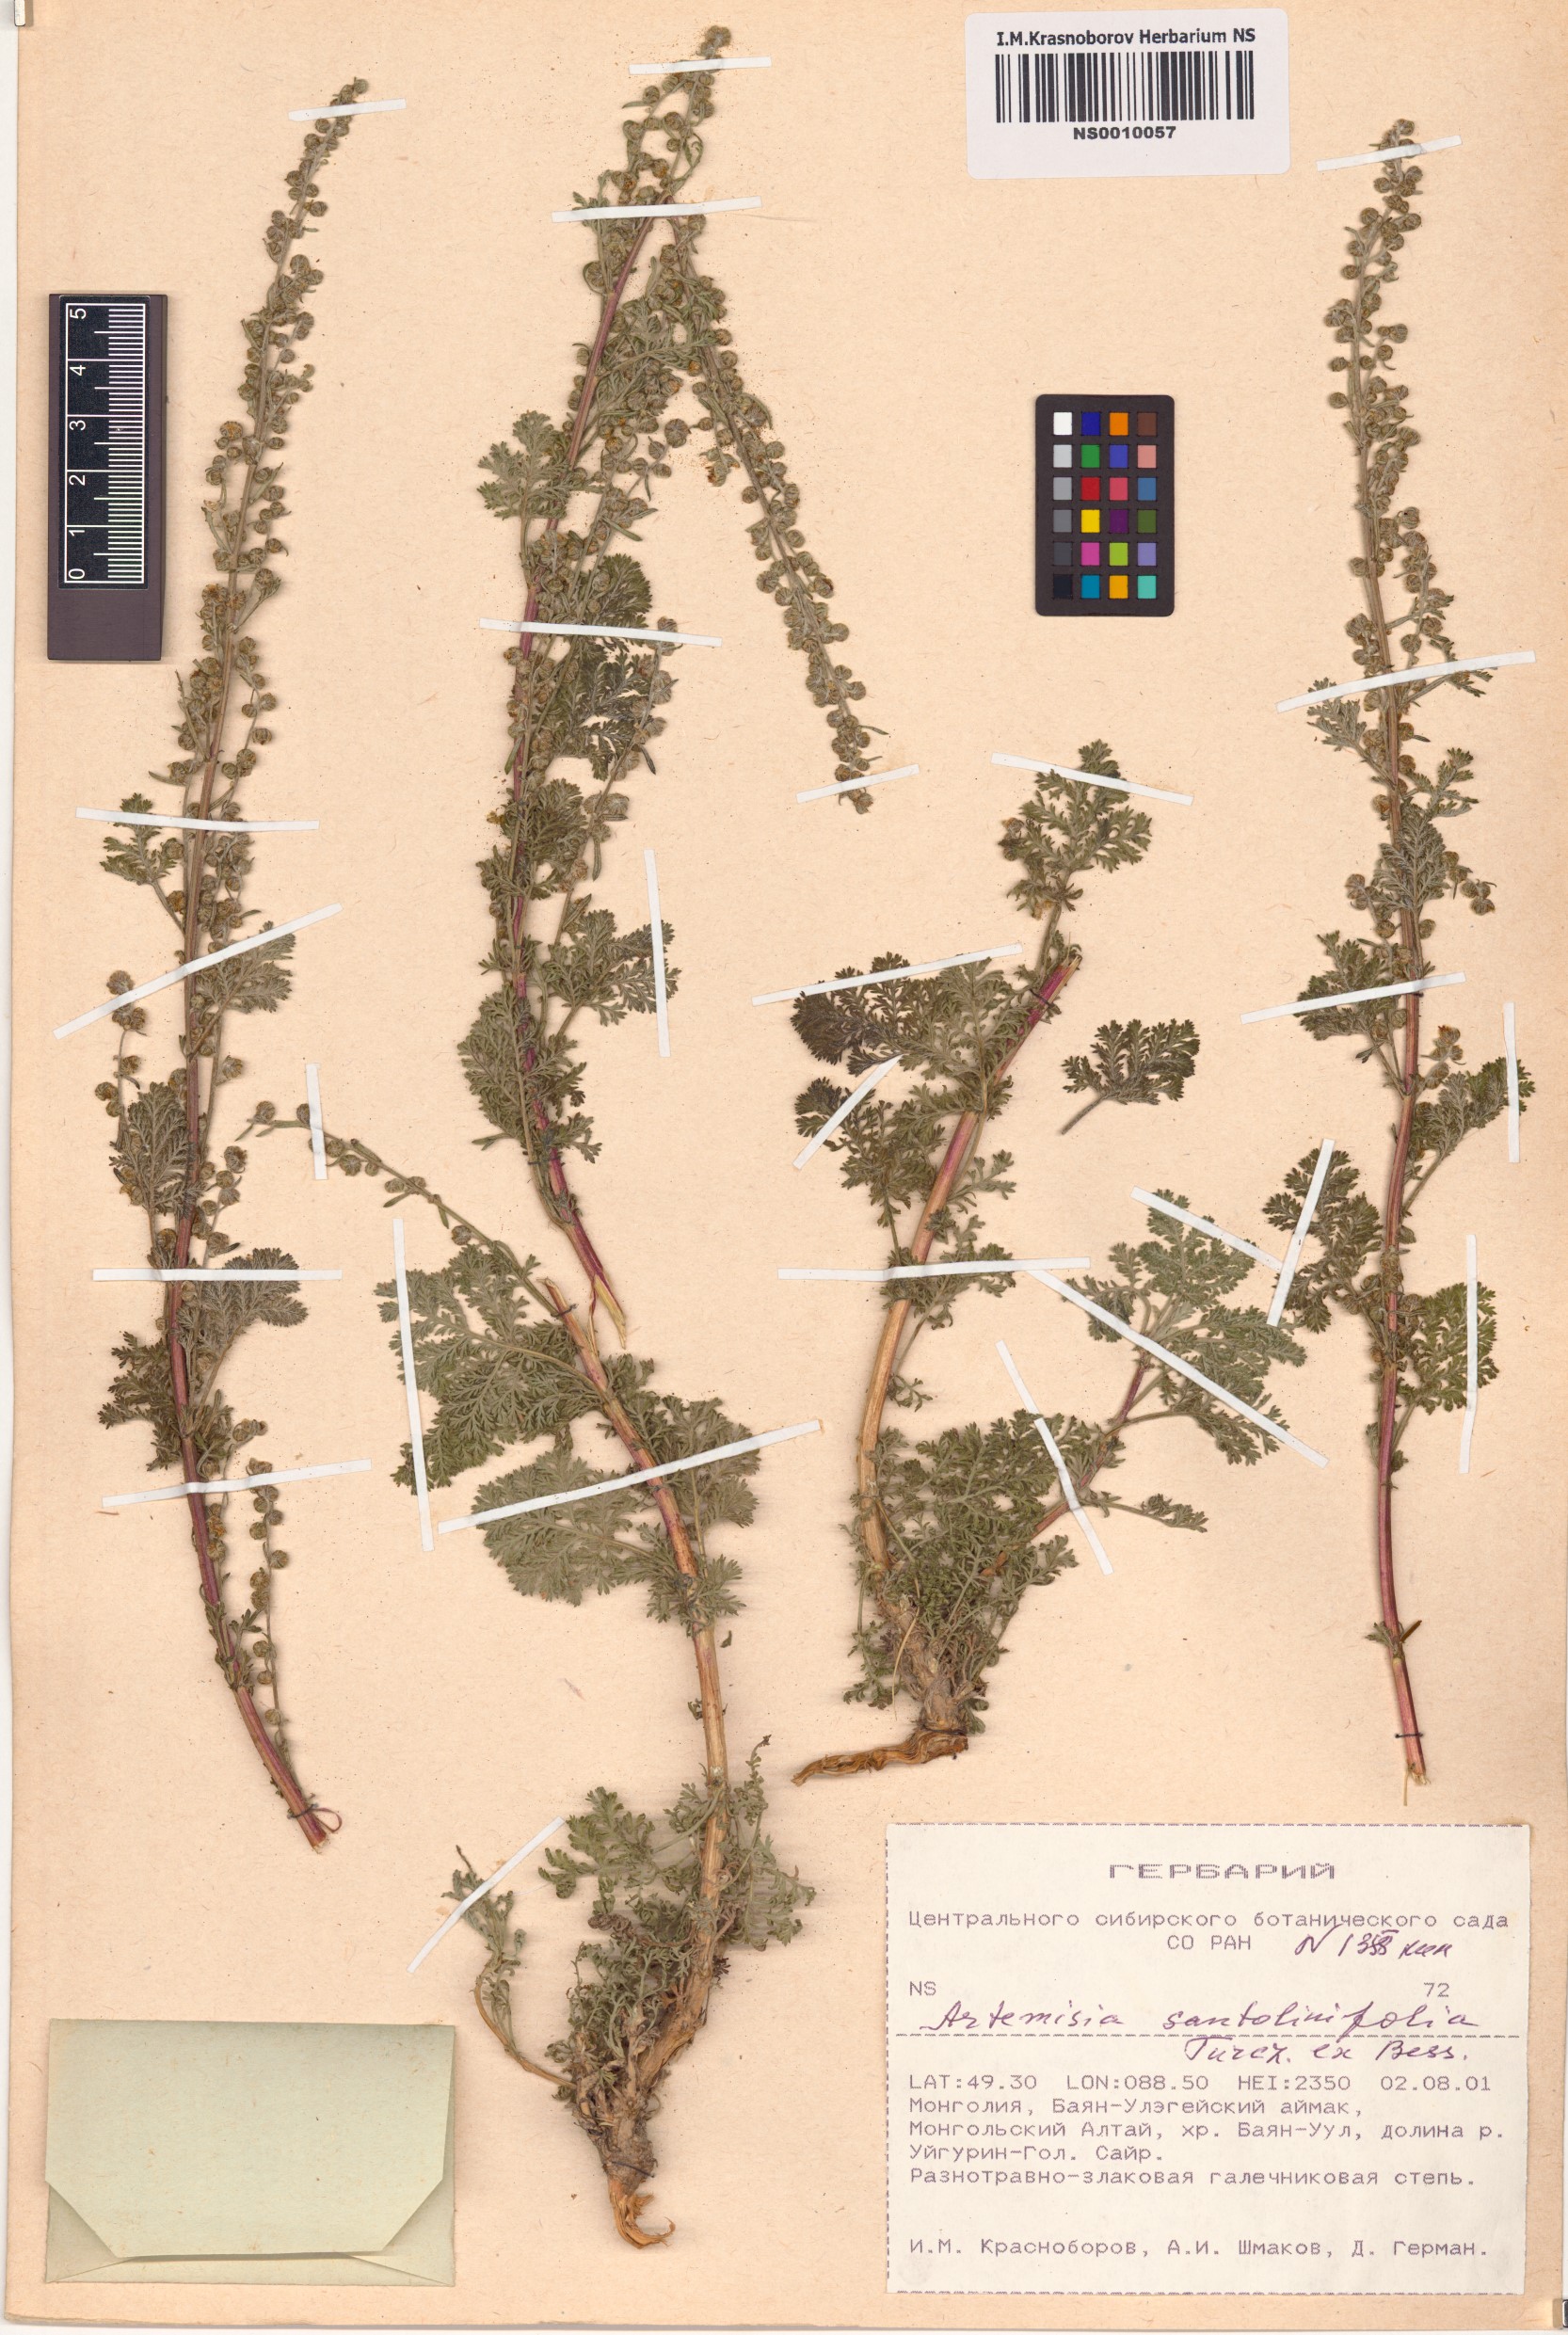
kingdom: Plantae
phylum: Tracheophyta
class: Magnoliopsida
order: Asterales
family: Asteraceae
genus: Artemisia
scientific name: Artemisia stechmanniana
